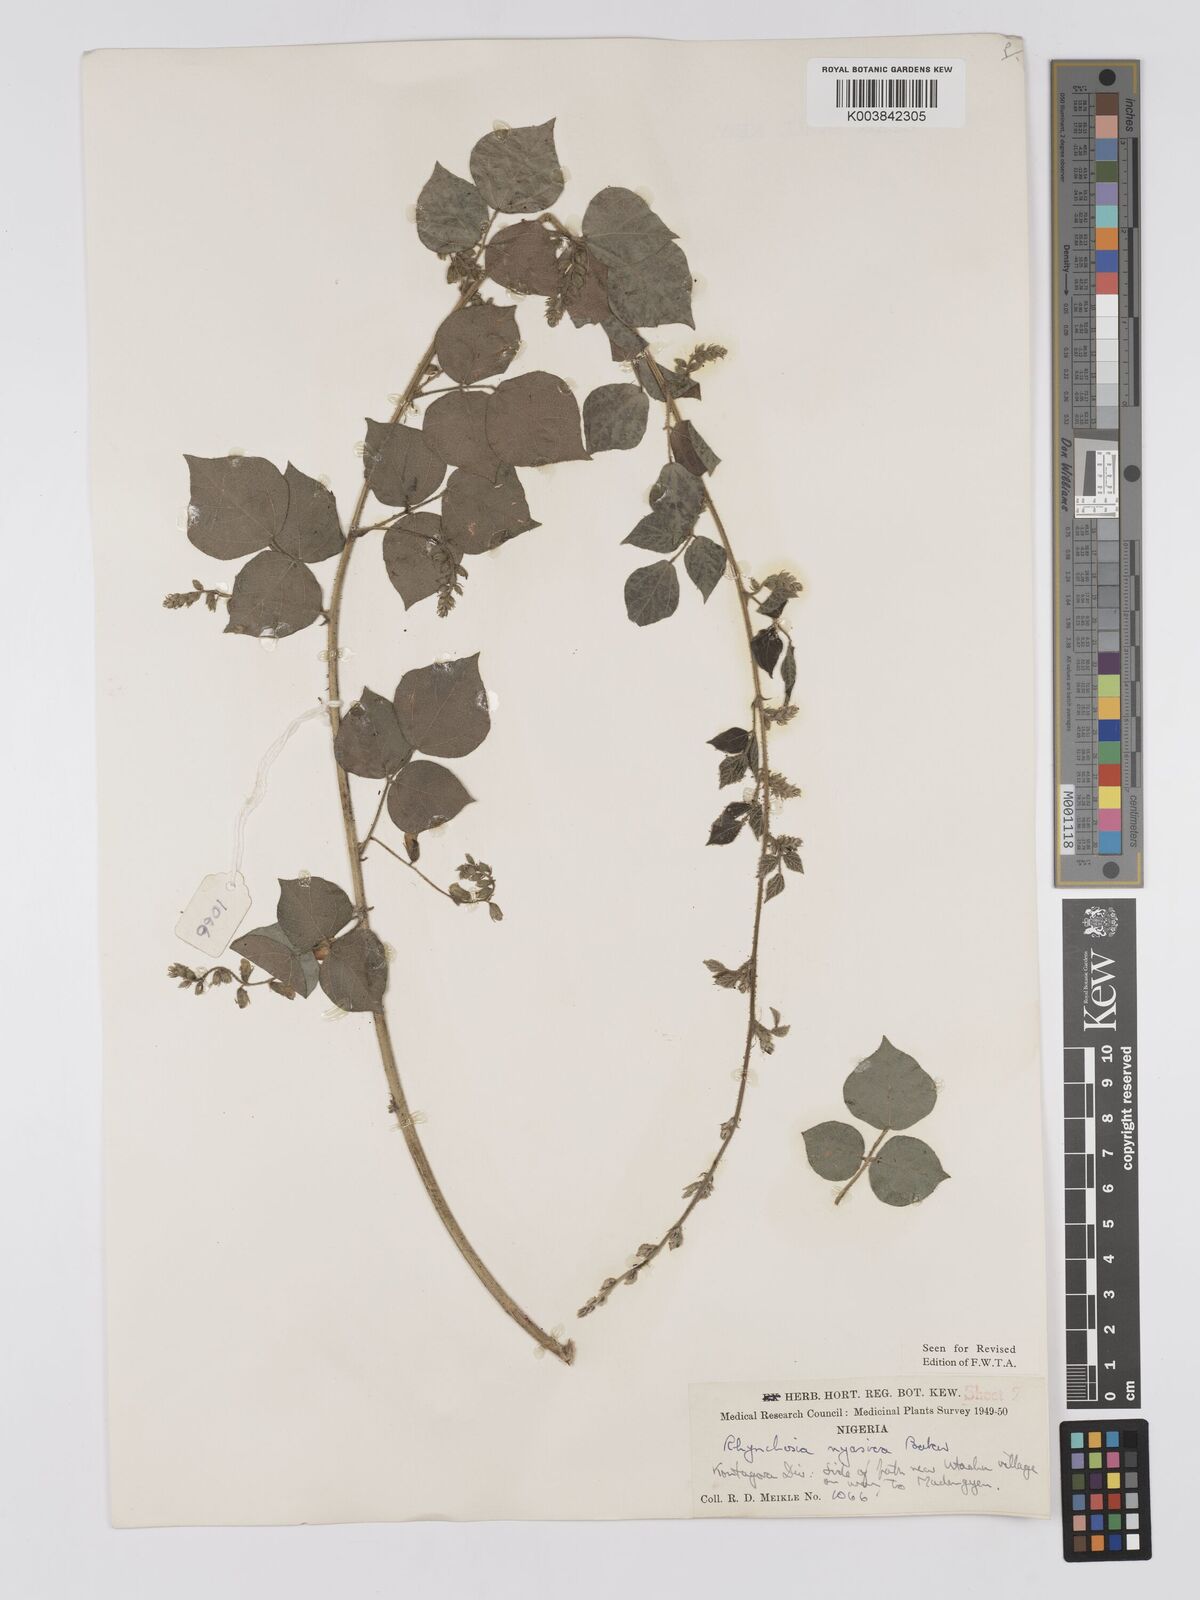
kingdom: Plantae
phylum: Tracheophyta
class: Magnoliopsida
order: Fabales
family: Fabaceae
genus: Rhynchosia
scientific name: Rhynchosia nyasica
